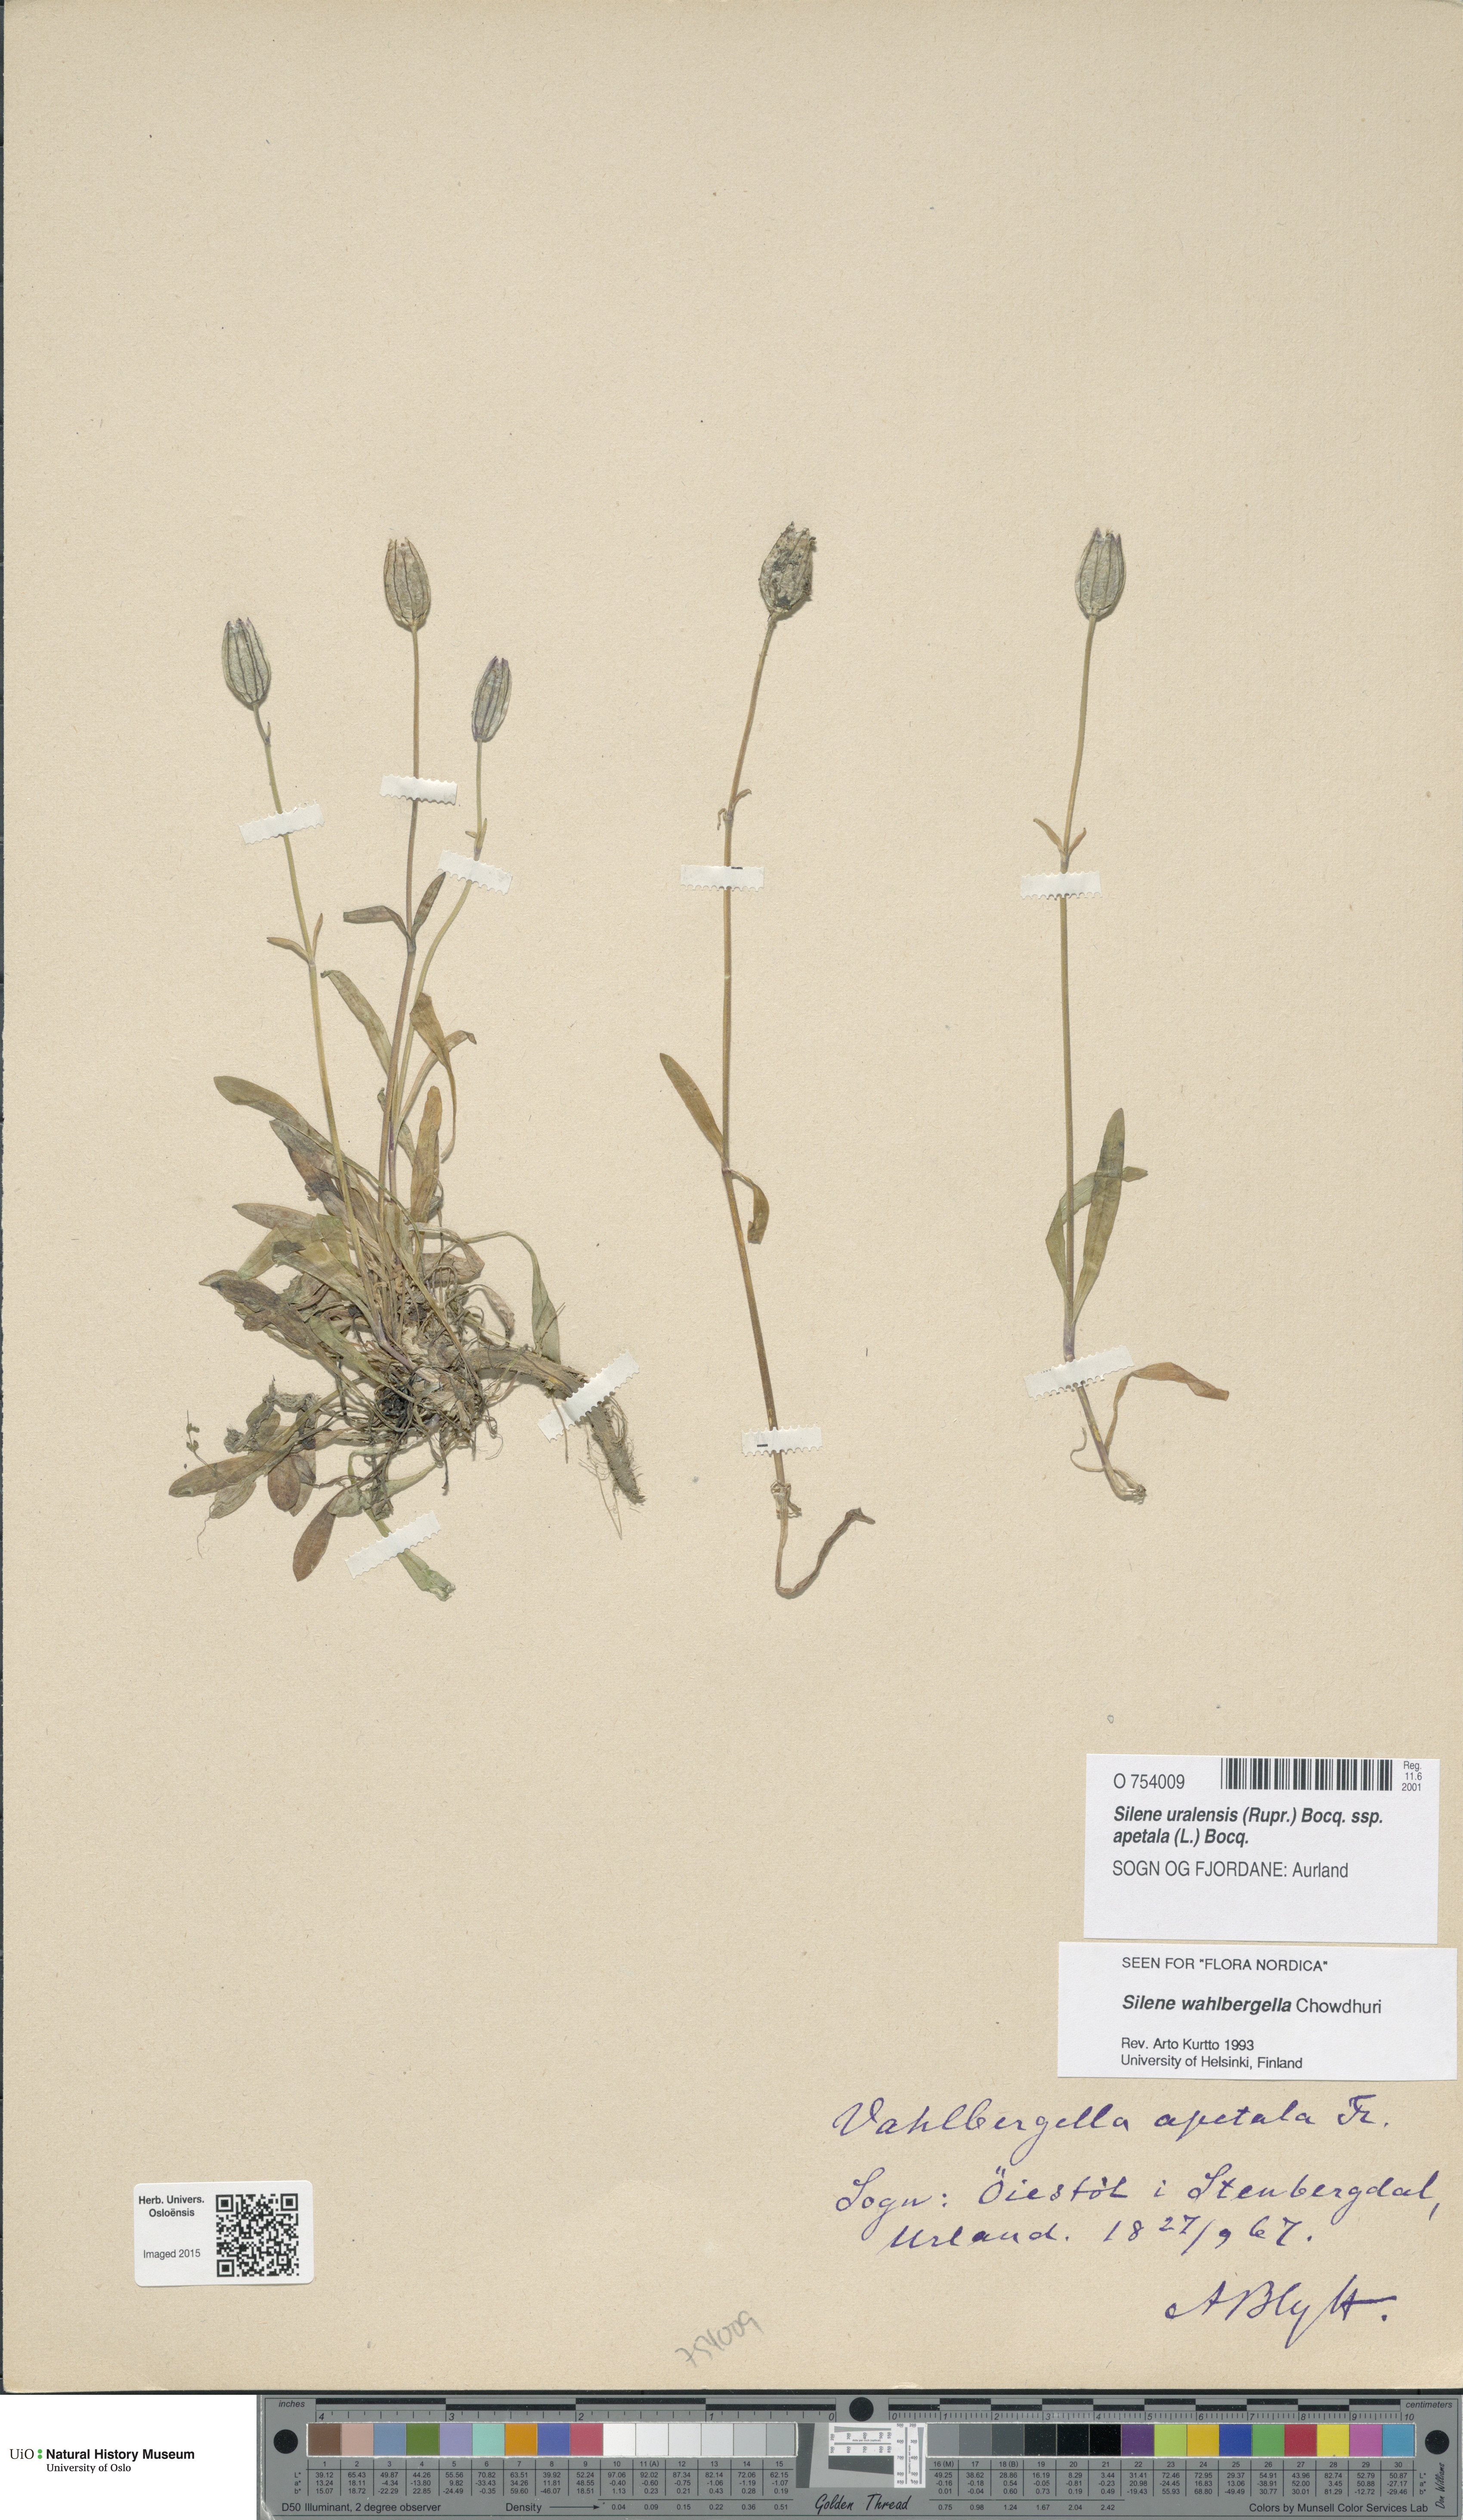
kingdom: Plantae
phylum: Tracheophyta
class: Magnoliopsida
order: Caryophyllales
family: Caryophyllaceae
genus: Silene
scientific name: Silene wahlbergella
